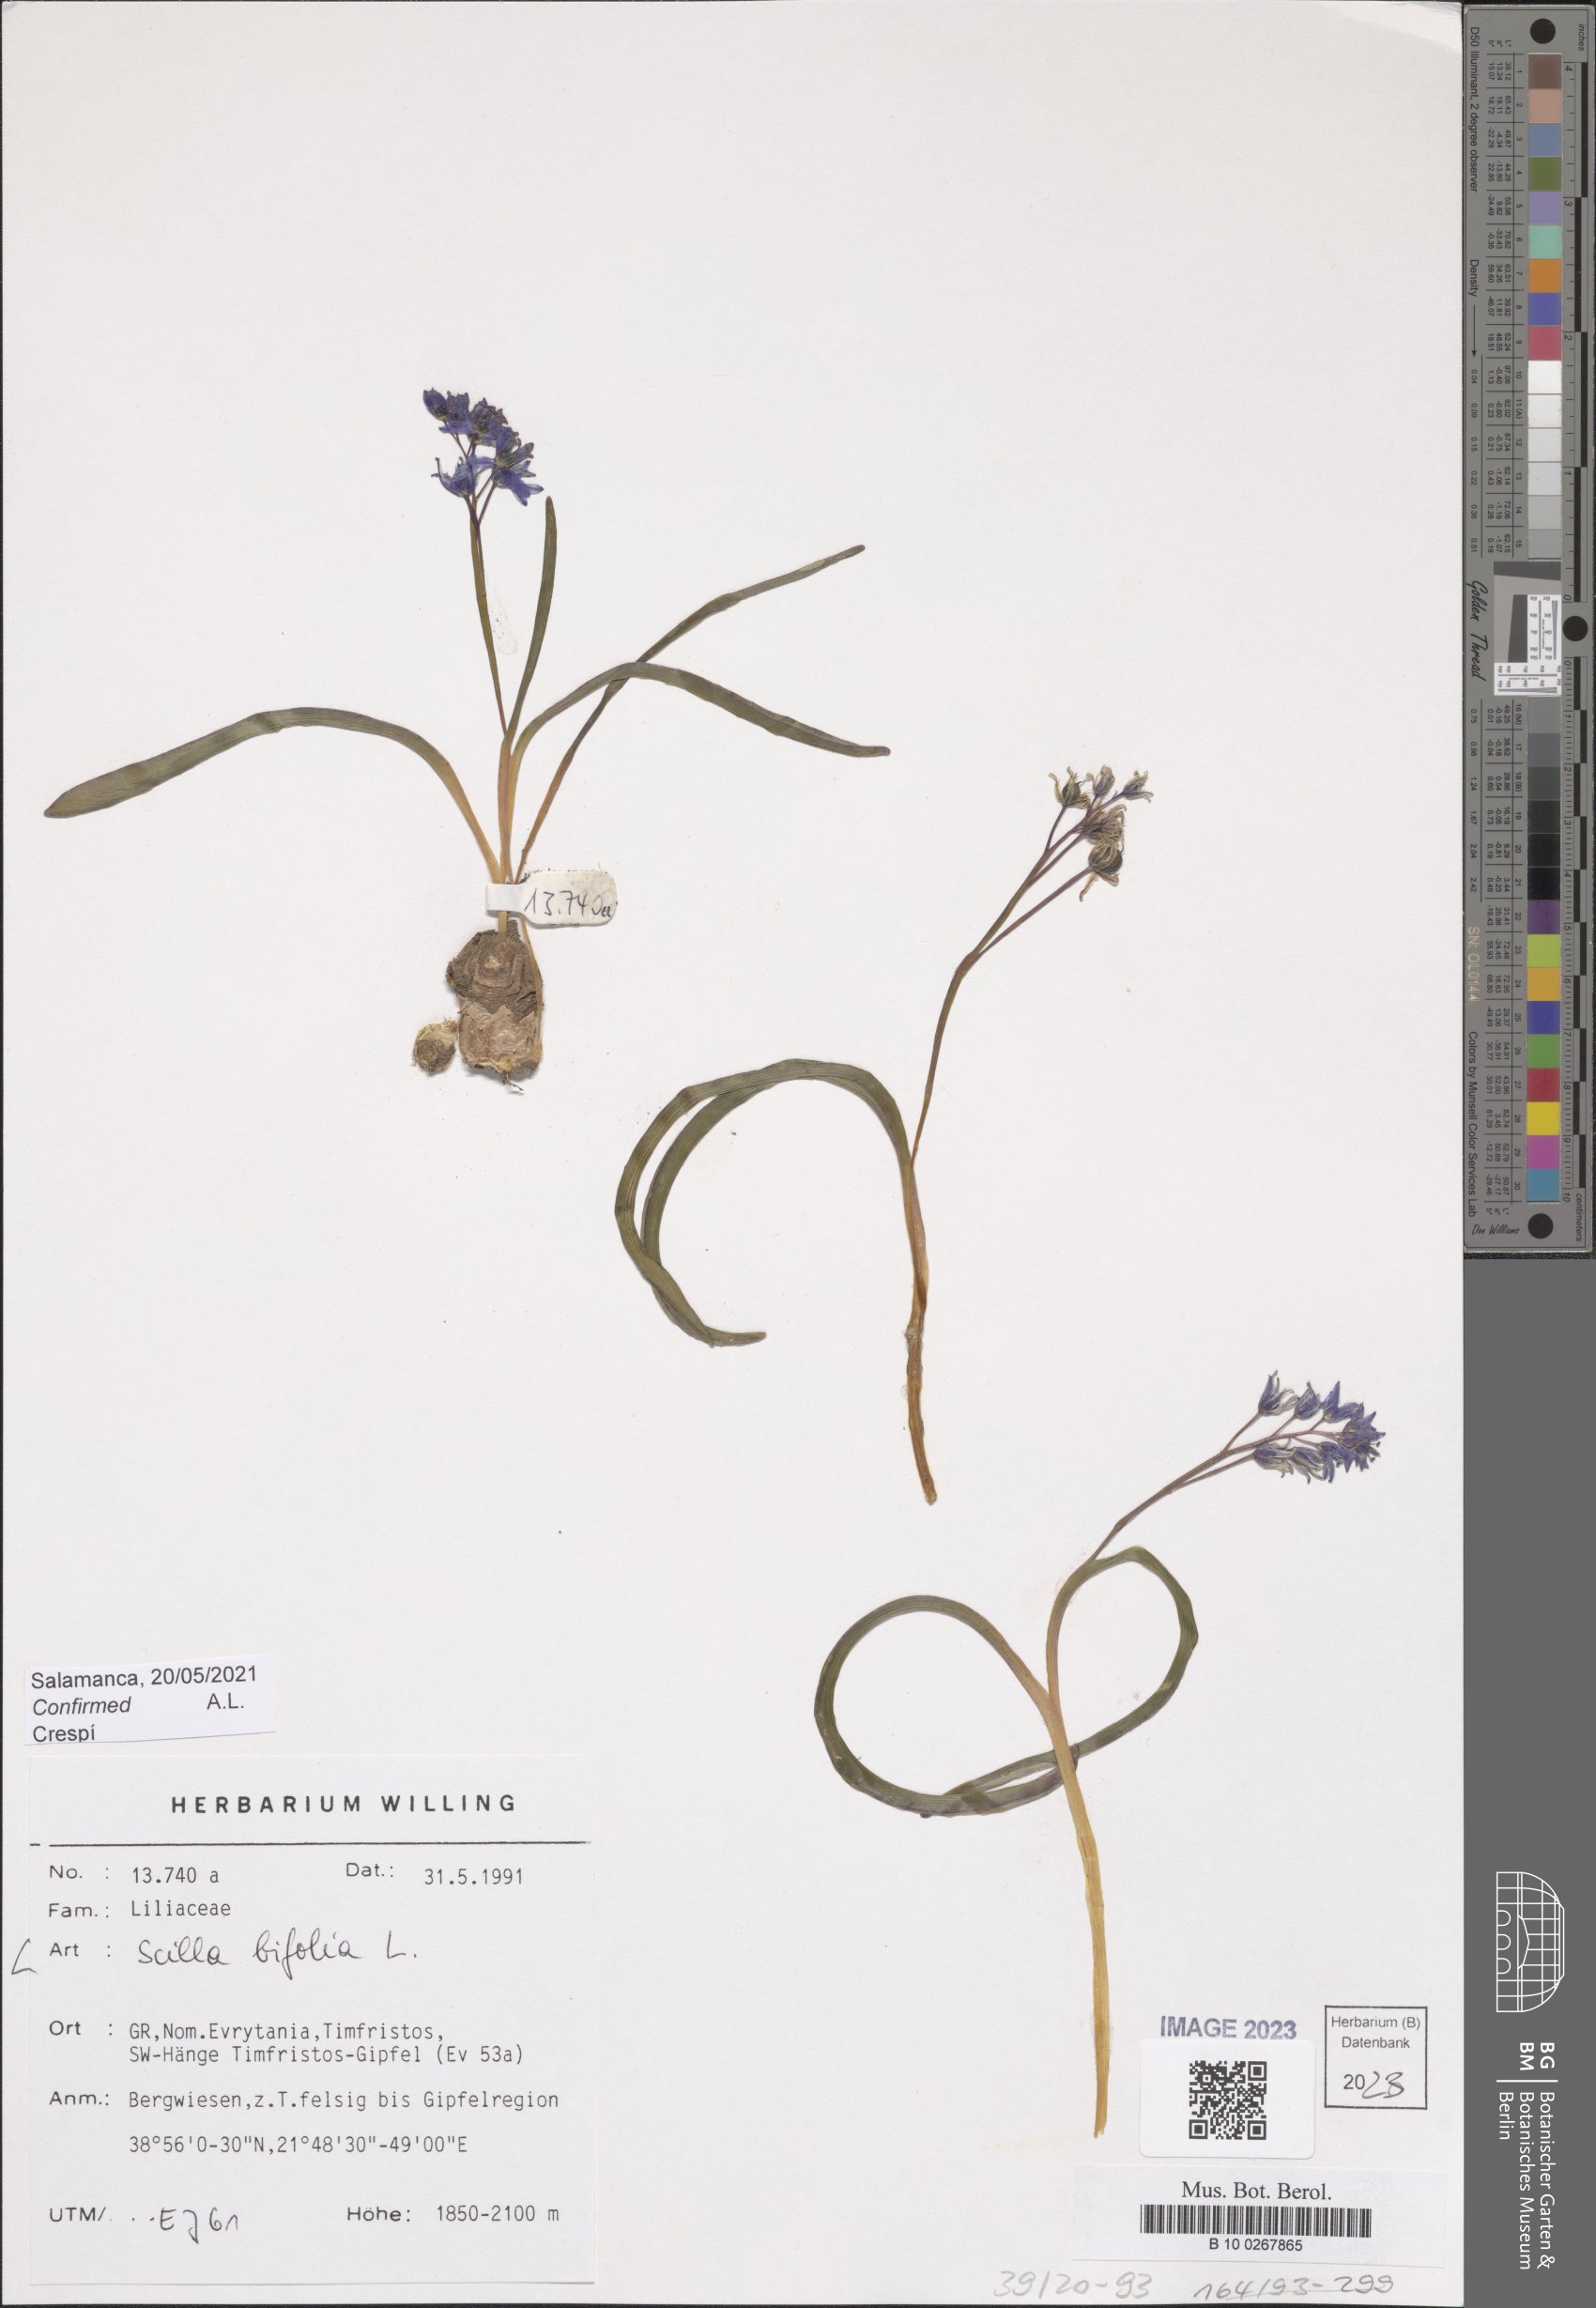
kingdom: Plantae
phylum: Tracheophyta
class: Liliopsida
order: Asparagales
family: Asparagaceae
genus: Scilla
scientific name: Scilla bifolia
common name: Alpine squill
